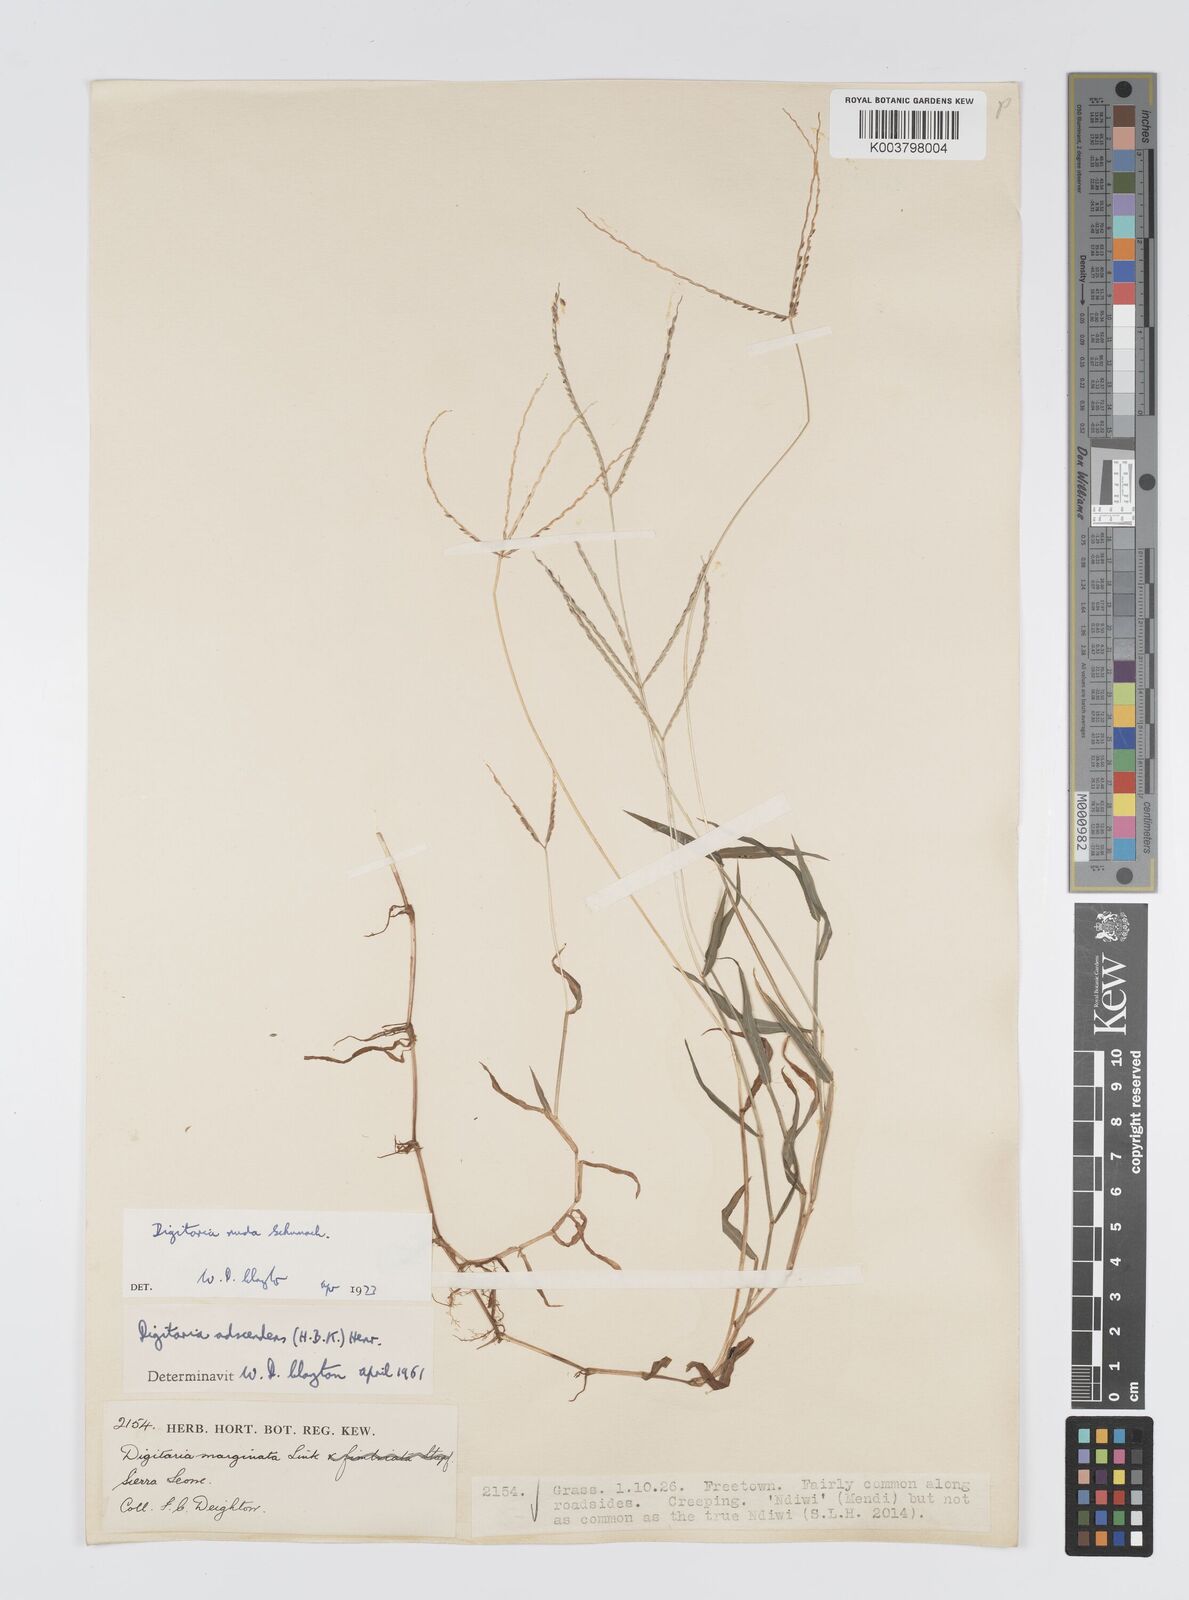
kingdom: Plantae
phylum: Tracheophyta
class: Liliopsida
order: Poales
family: Poaceae
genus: Digitaria
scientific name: Digitaria nuda
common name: Naked crabgrass
